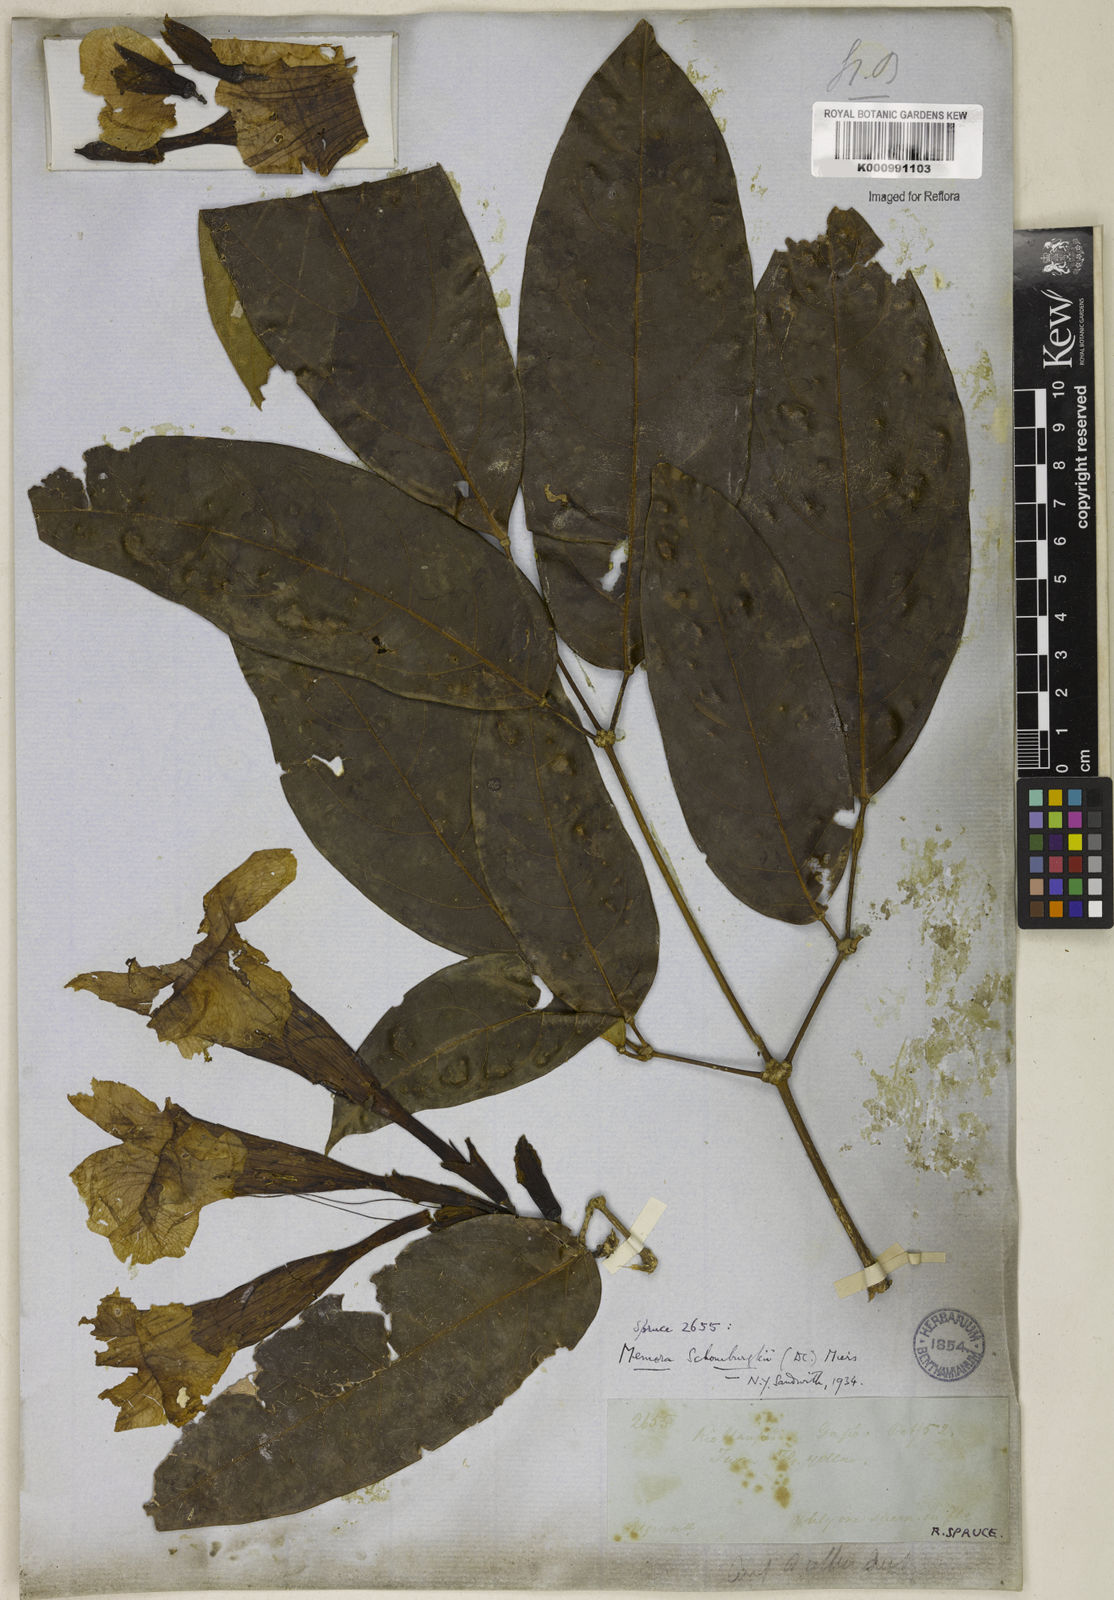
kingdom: Plantae
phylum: Tracheophyta
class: Magnoliopsida
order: Lamiales
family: Bignoniaceae
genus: Adenocalymma
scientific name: Adenocalymma schomburgkii
